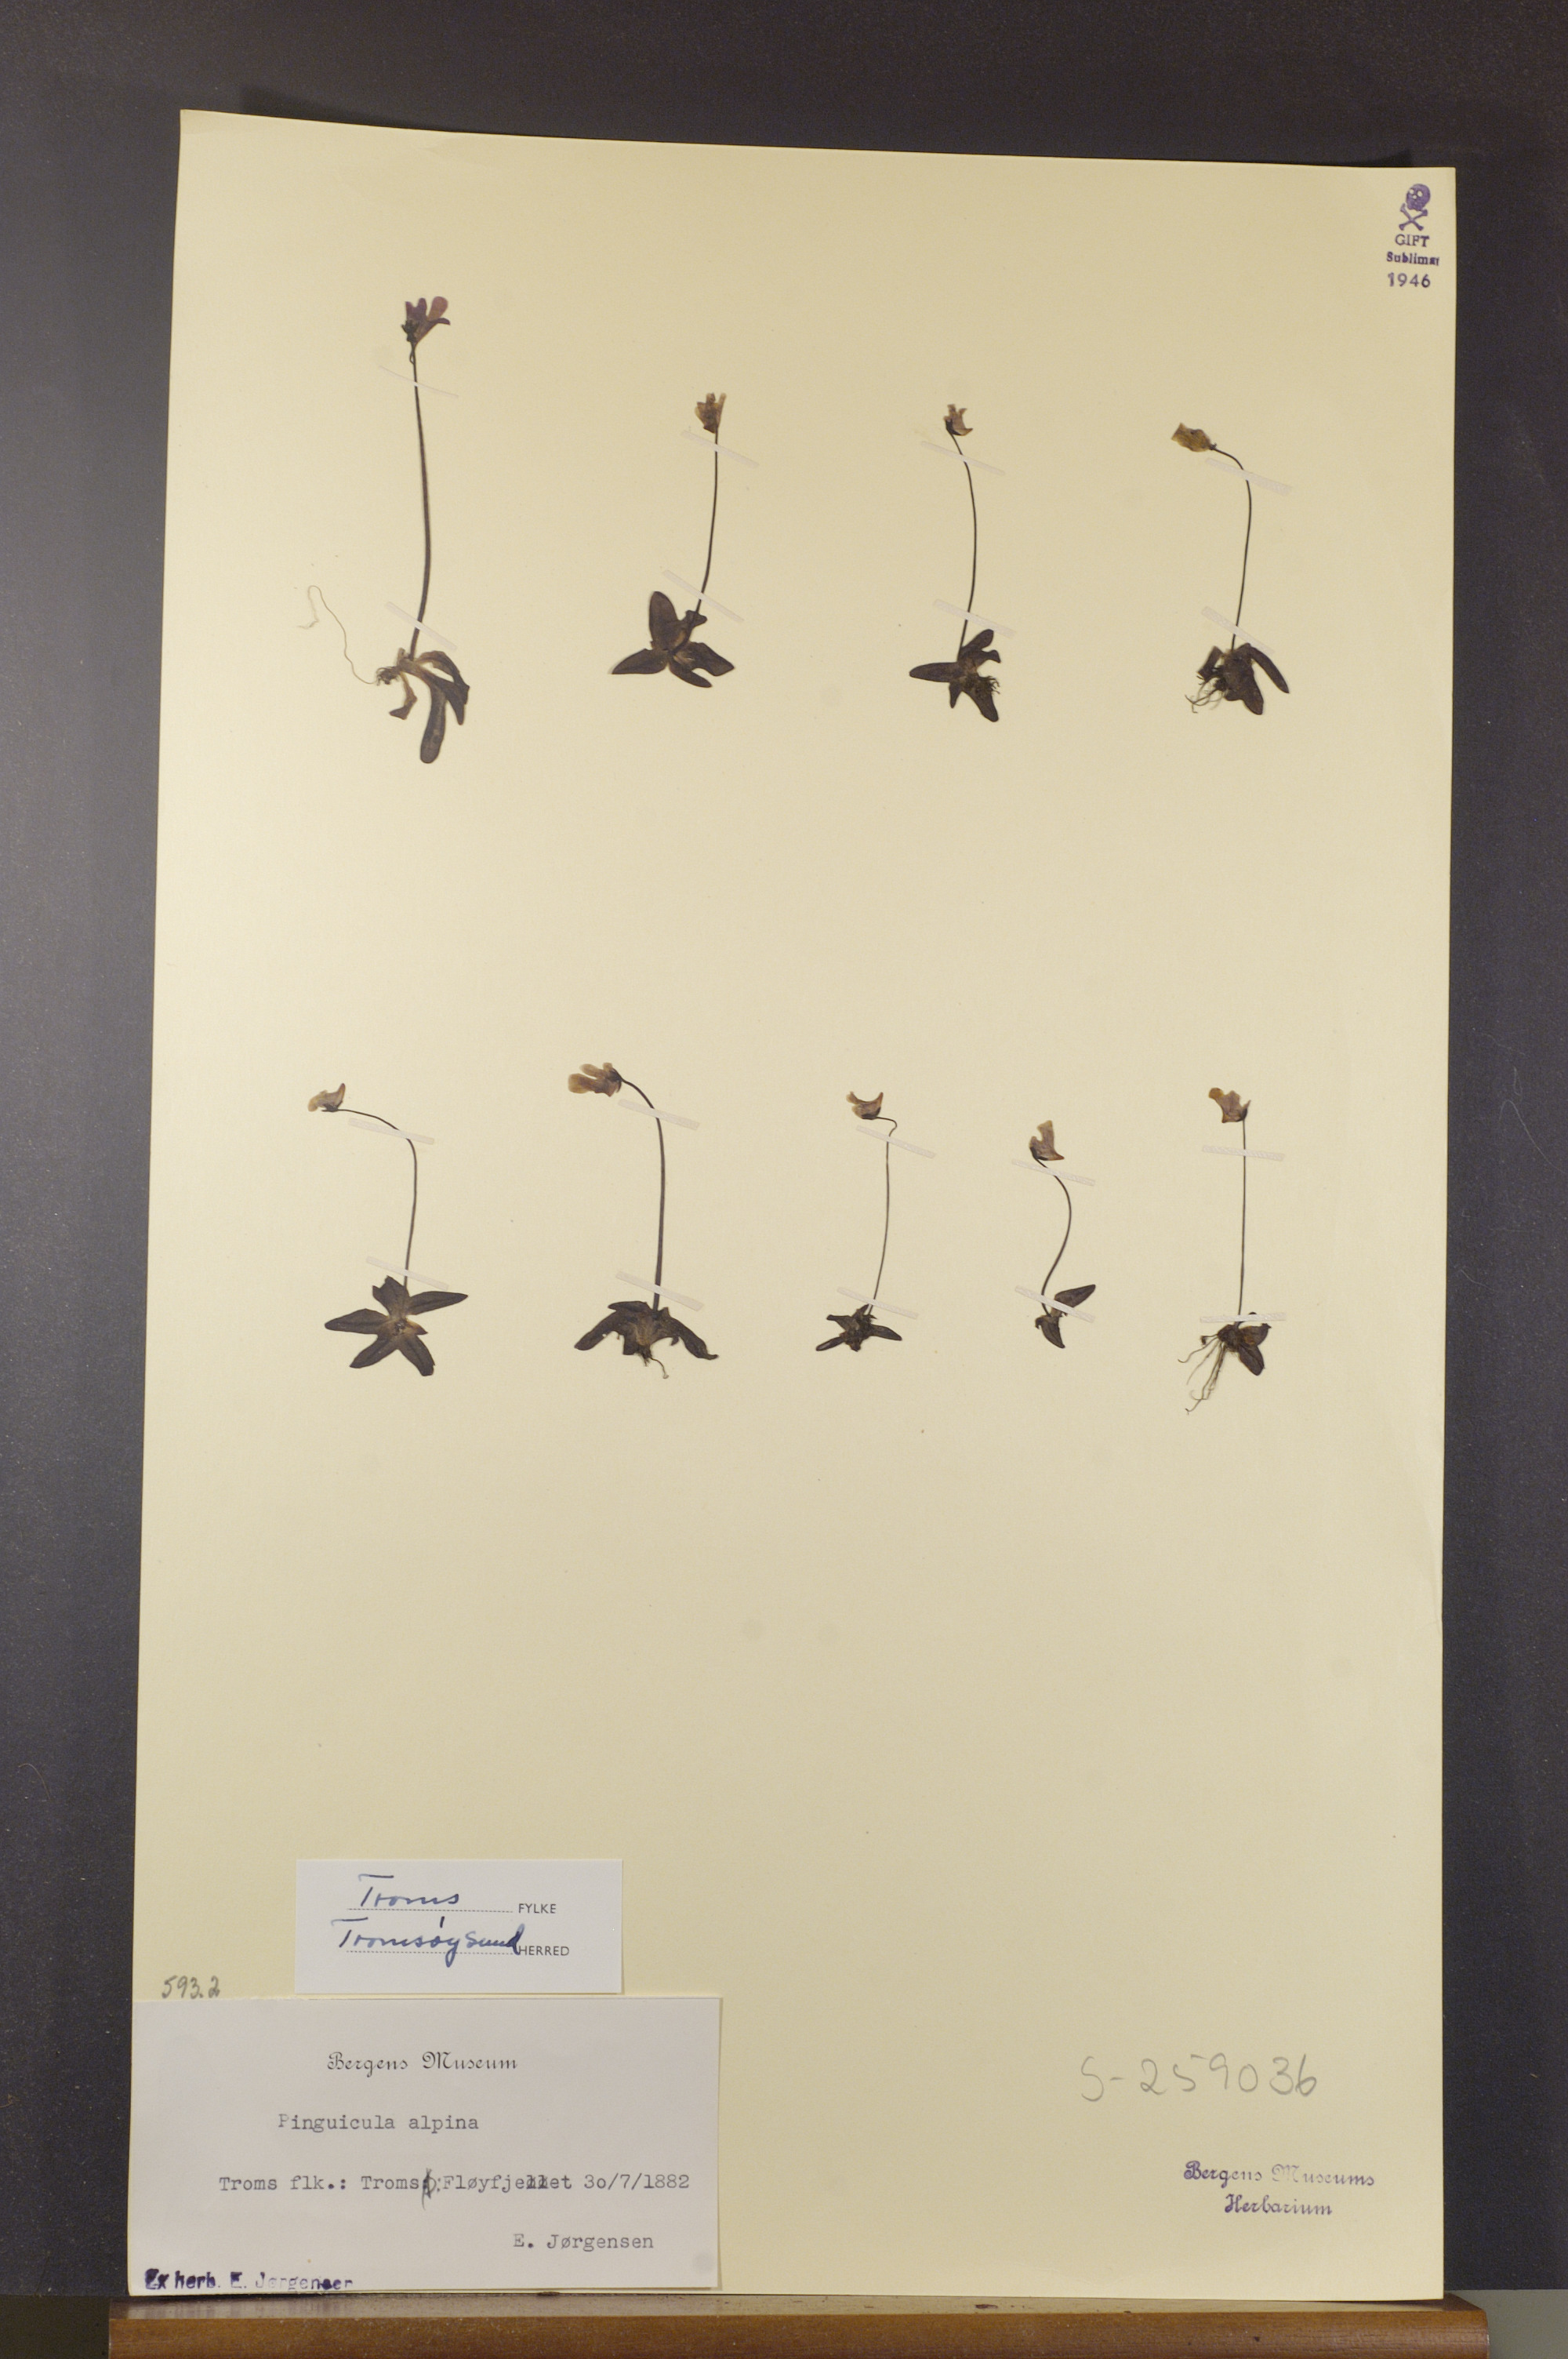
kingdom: Plantae
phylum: Tracheophyta
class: Magnoliopsida
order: Lamiales
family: Lentibulariaceae
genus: Pinguicula
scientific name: Pinguicula alpina
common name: Alpine butterwort
